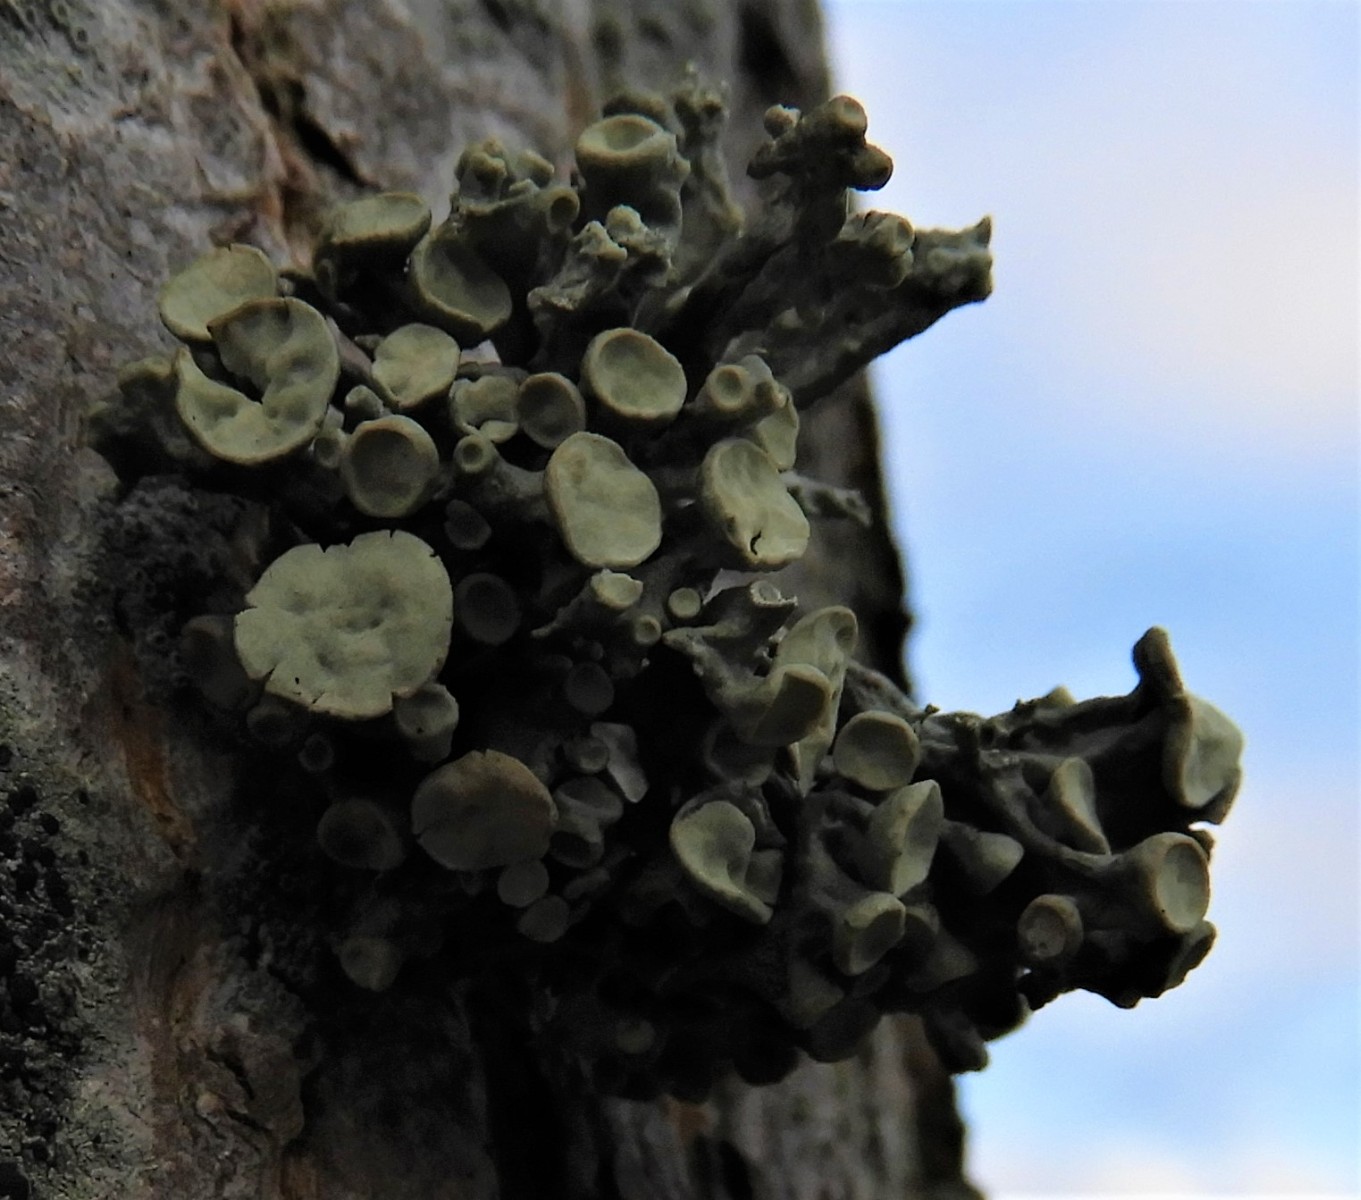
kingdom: Fungi
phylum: Ascomycota
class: Lecanoromycetes
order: Lecanorales
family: Ramalinaceae
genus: Ramalina
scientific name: Ramalina fastigiata
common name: tue-grenlav
